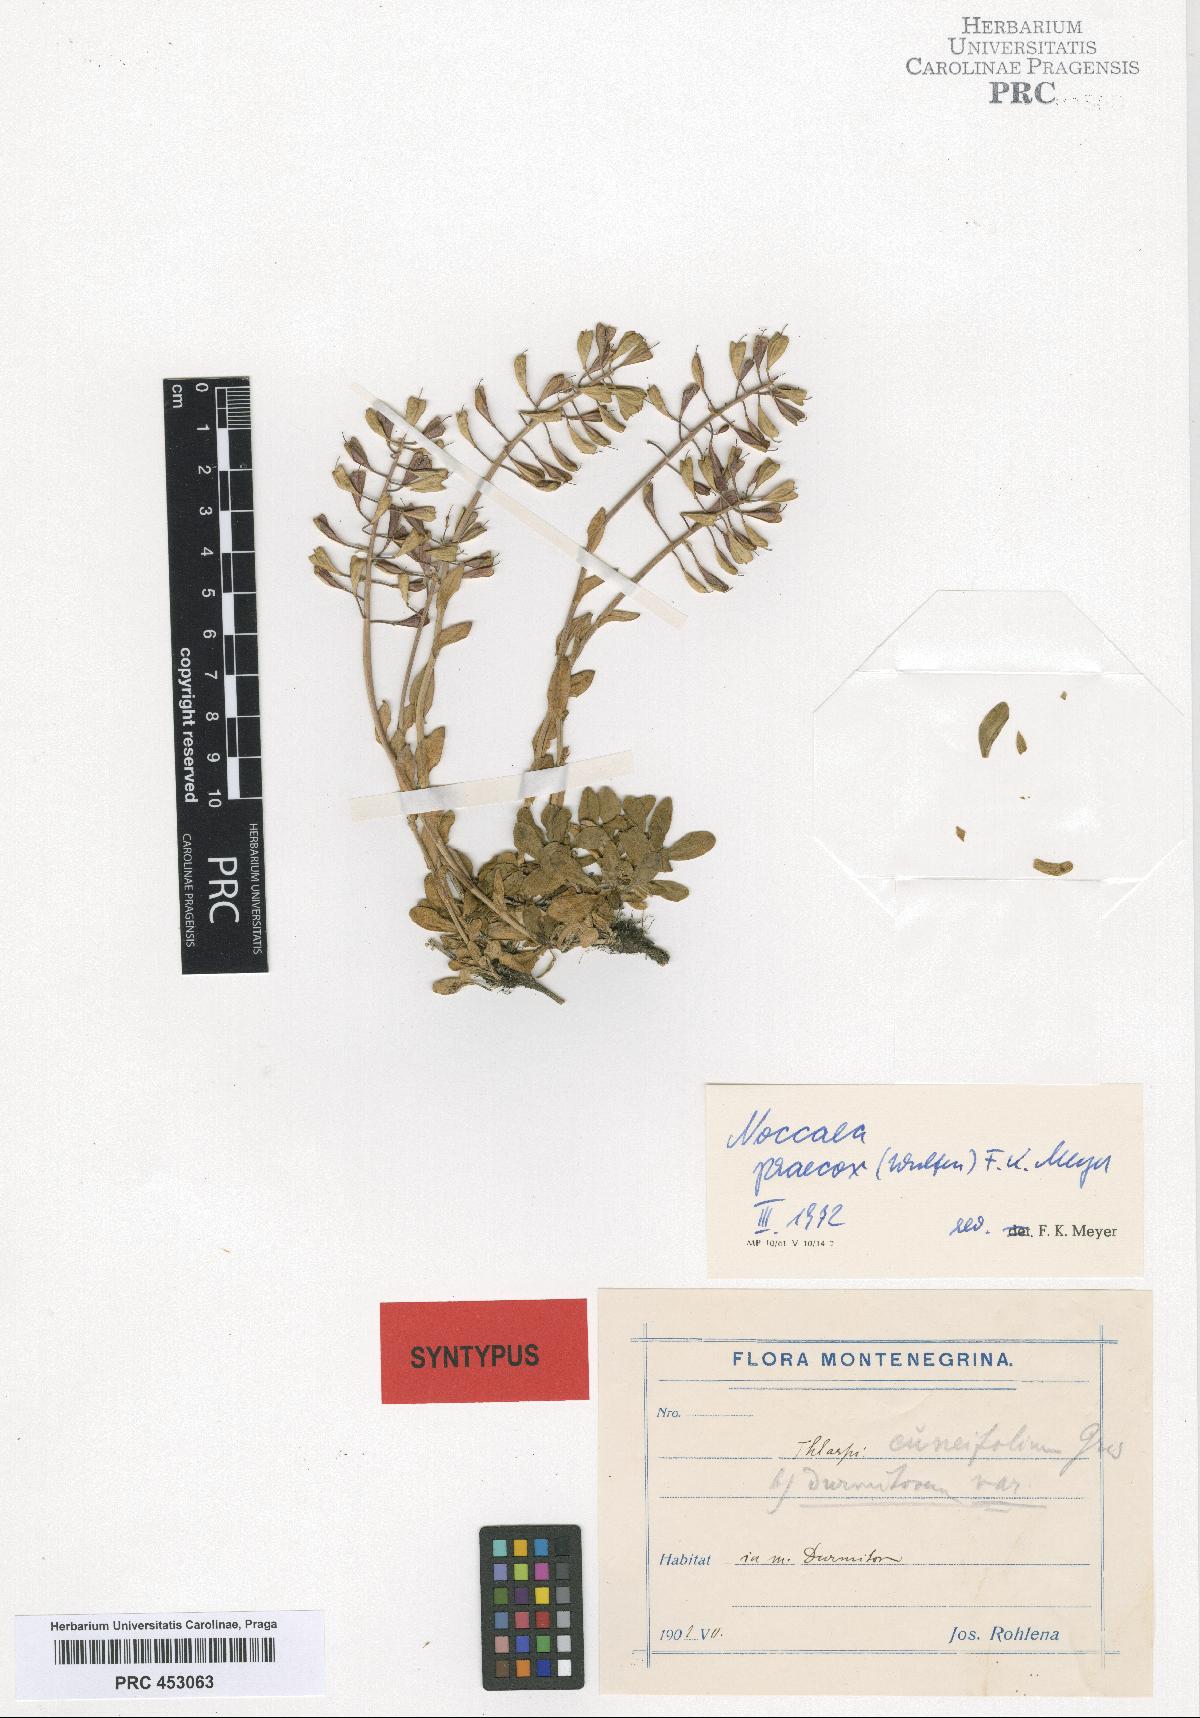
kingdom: Plantae
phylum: Tracheophyta
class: Magnoliopsida
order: Brassicales
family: Brassicaceae
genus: Noccaea
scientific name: Noccaea praecox
